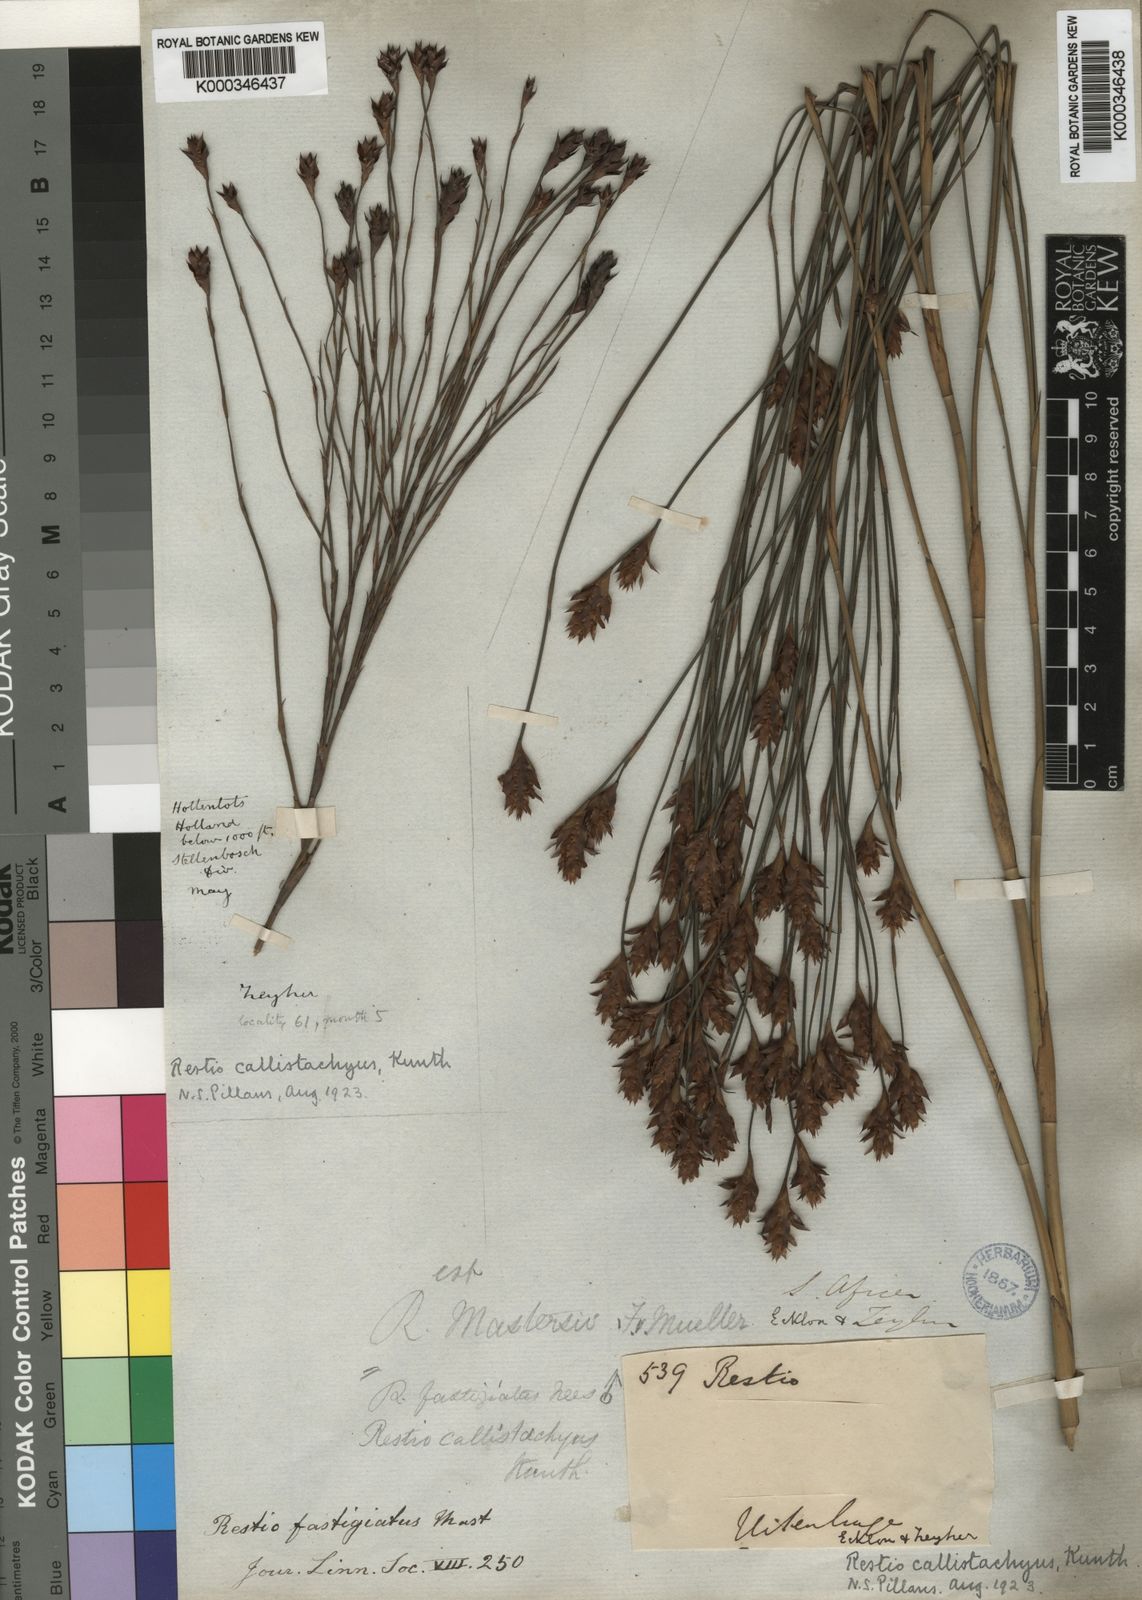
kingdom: Plantae
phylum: Tracheophyta
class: Liliopsida
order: Poales
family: Restionaceae
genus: Platycaulos
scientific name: Platycaulos callistachyus
